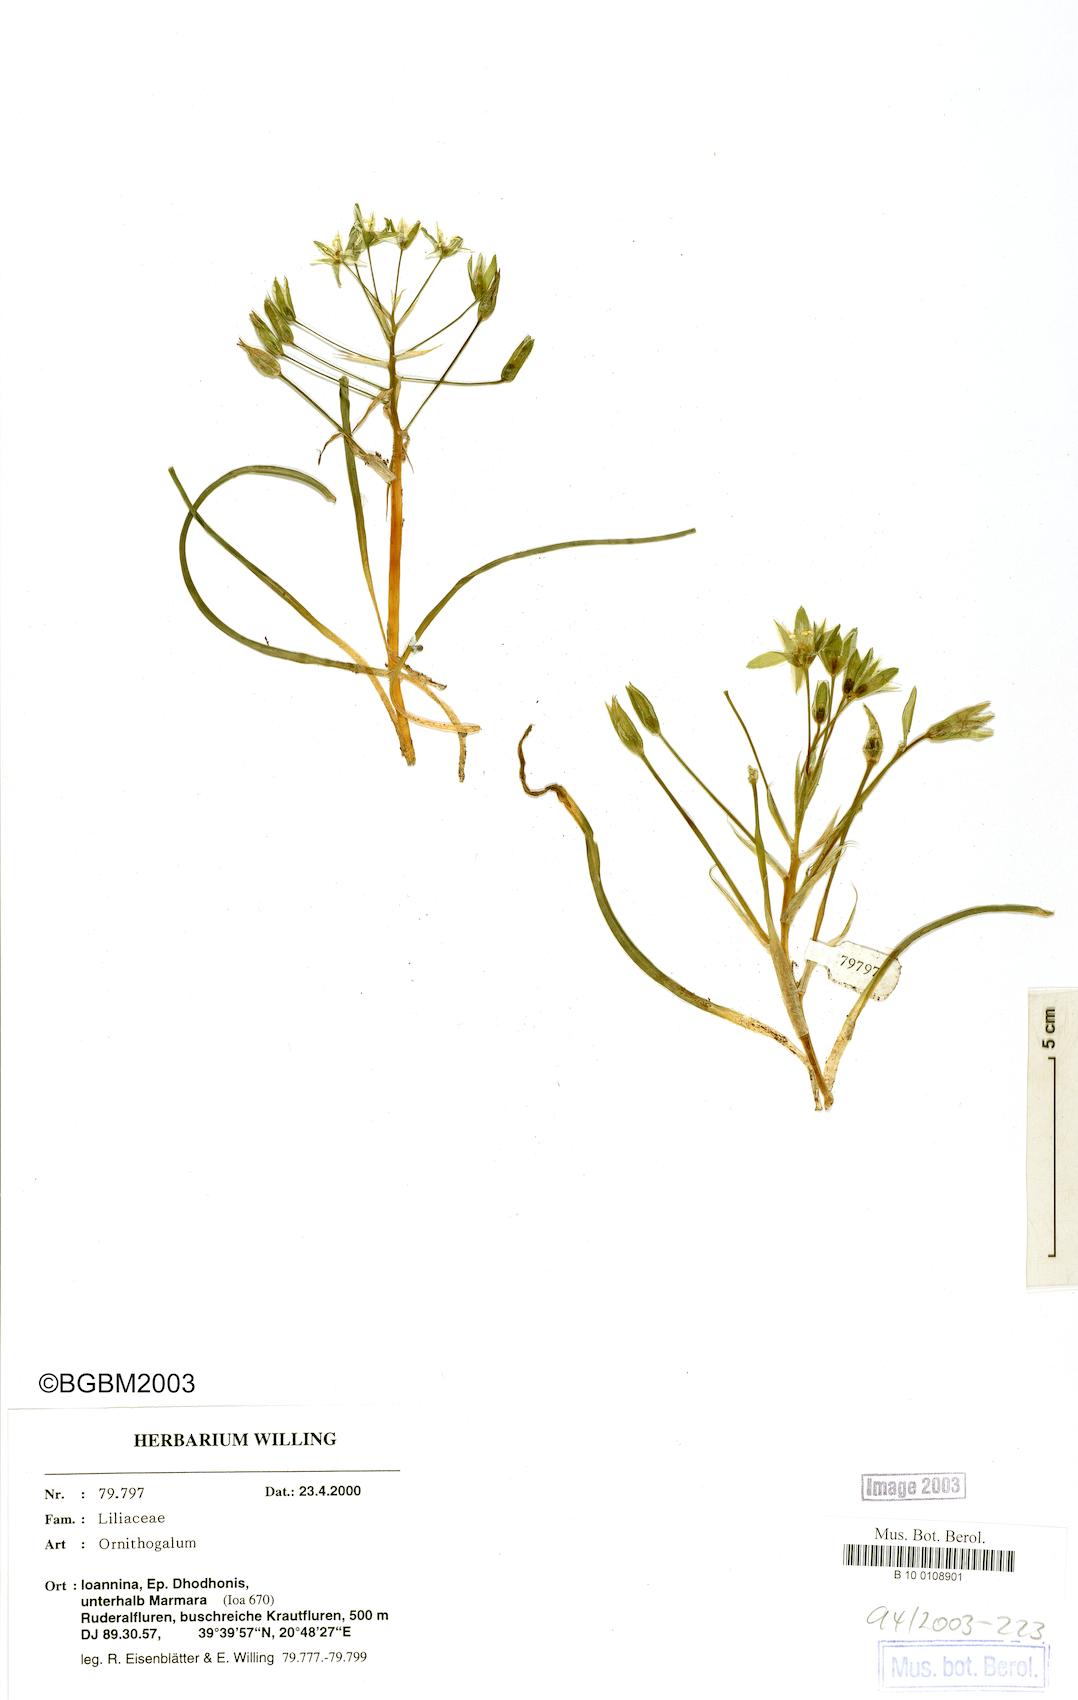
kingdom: Plantae
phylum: Tracheophyta
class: Liliopsida
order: Asparagales
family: Asparagaceae
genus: Ornithogalum
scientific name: Ornithogalum
